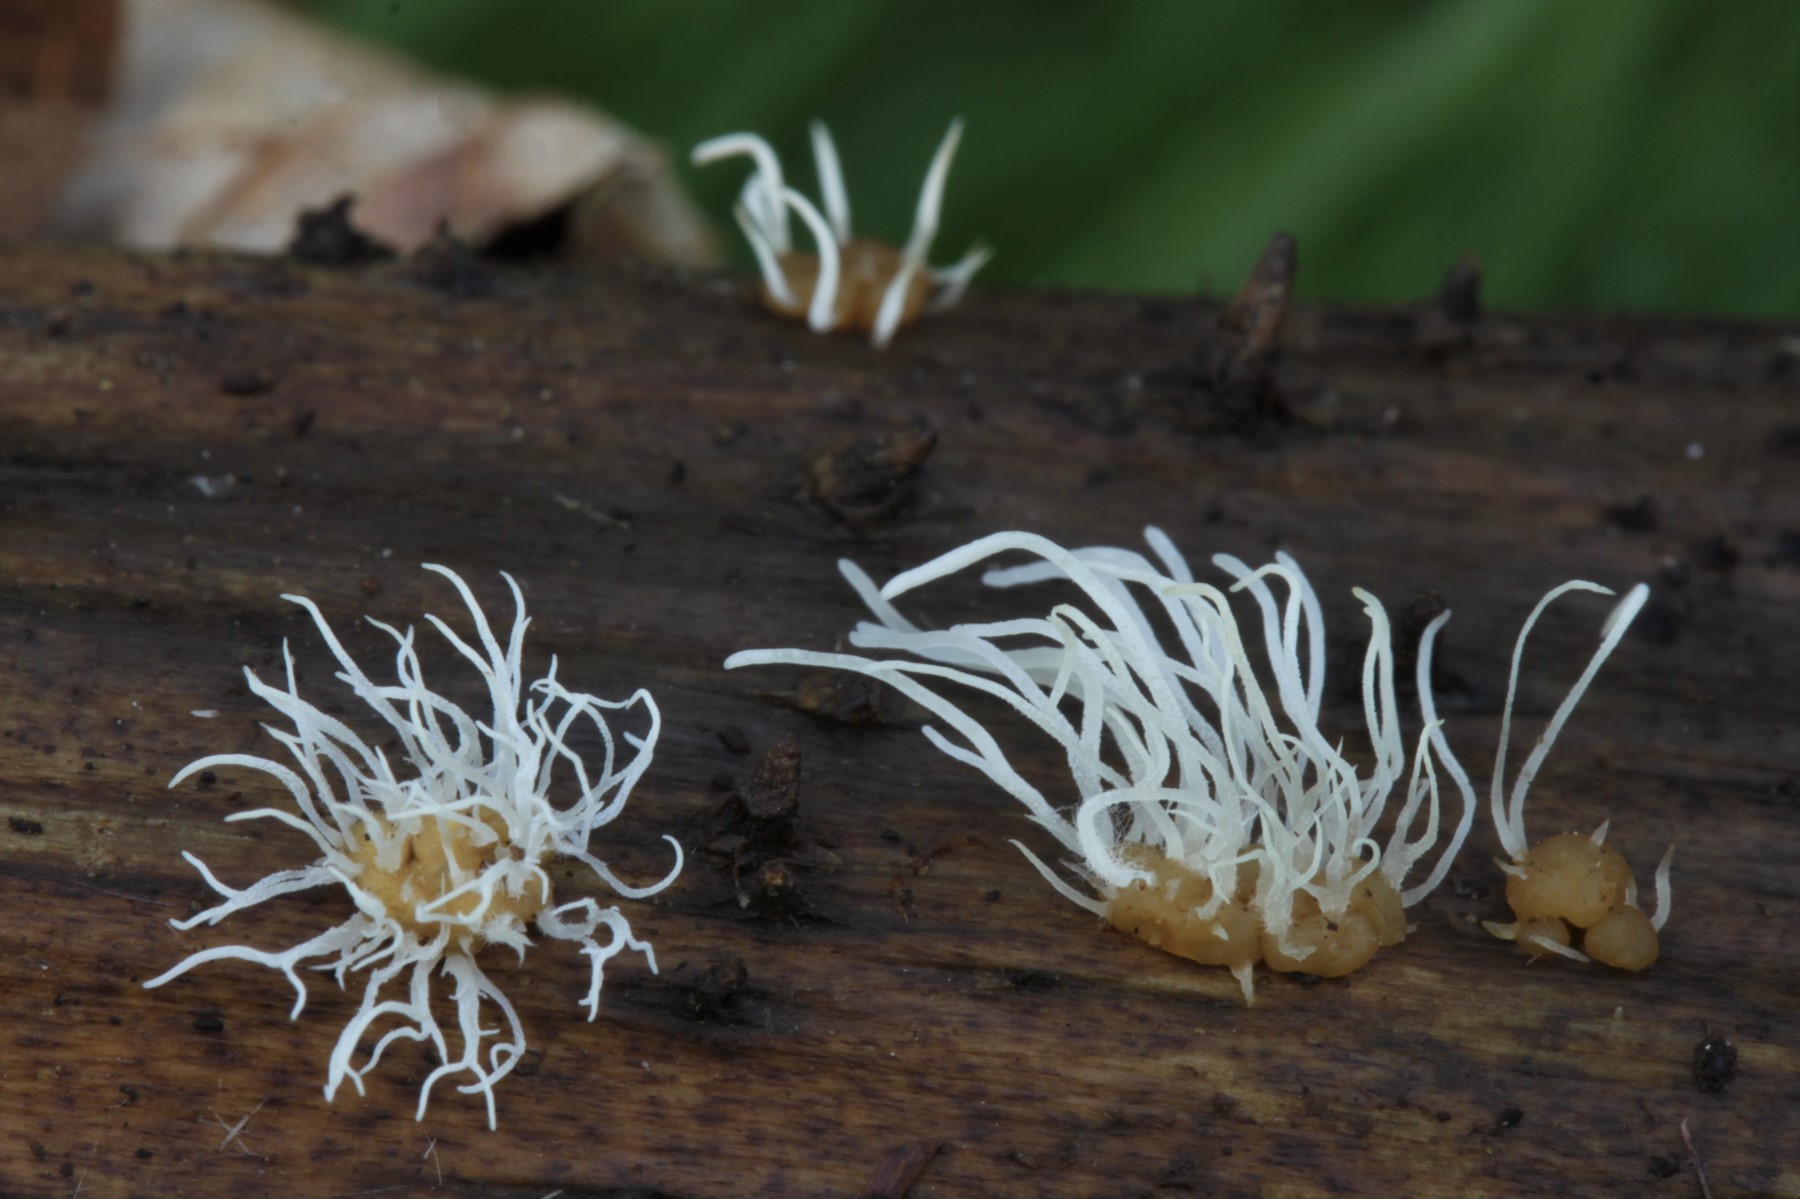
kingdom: Fungi
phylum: Basidiomycota
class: Agaricomycetes
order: Agaricales
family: Typhulaceae
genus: Typhula
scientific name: Typhula crassipes
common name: gulknoldet trådkølle
